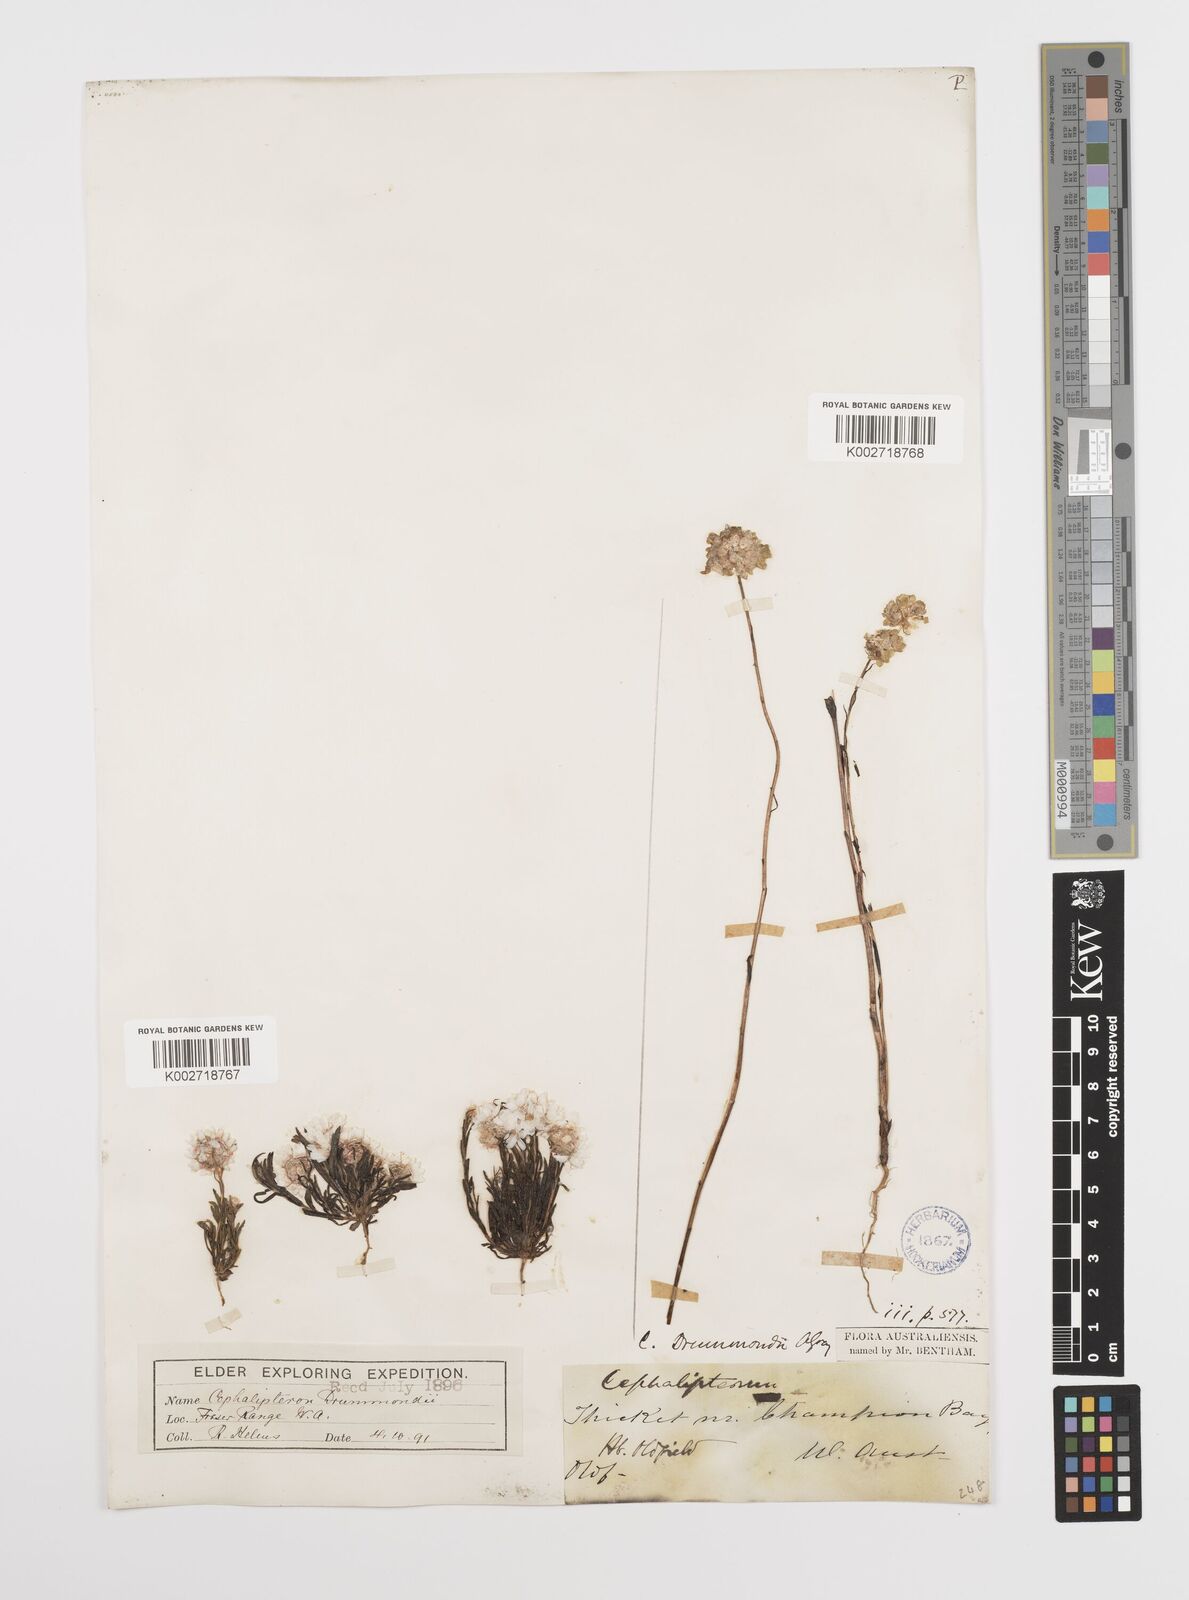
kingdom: Plantae
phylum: Tracheophyta
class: Magnoliopsida
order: Asterales
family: Asteraceae
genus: Cephalipterum
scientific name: Cephalipterum drummondii
